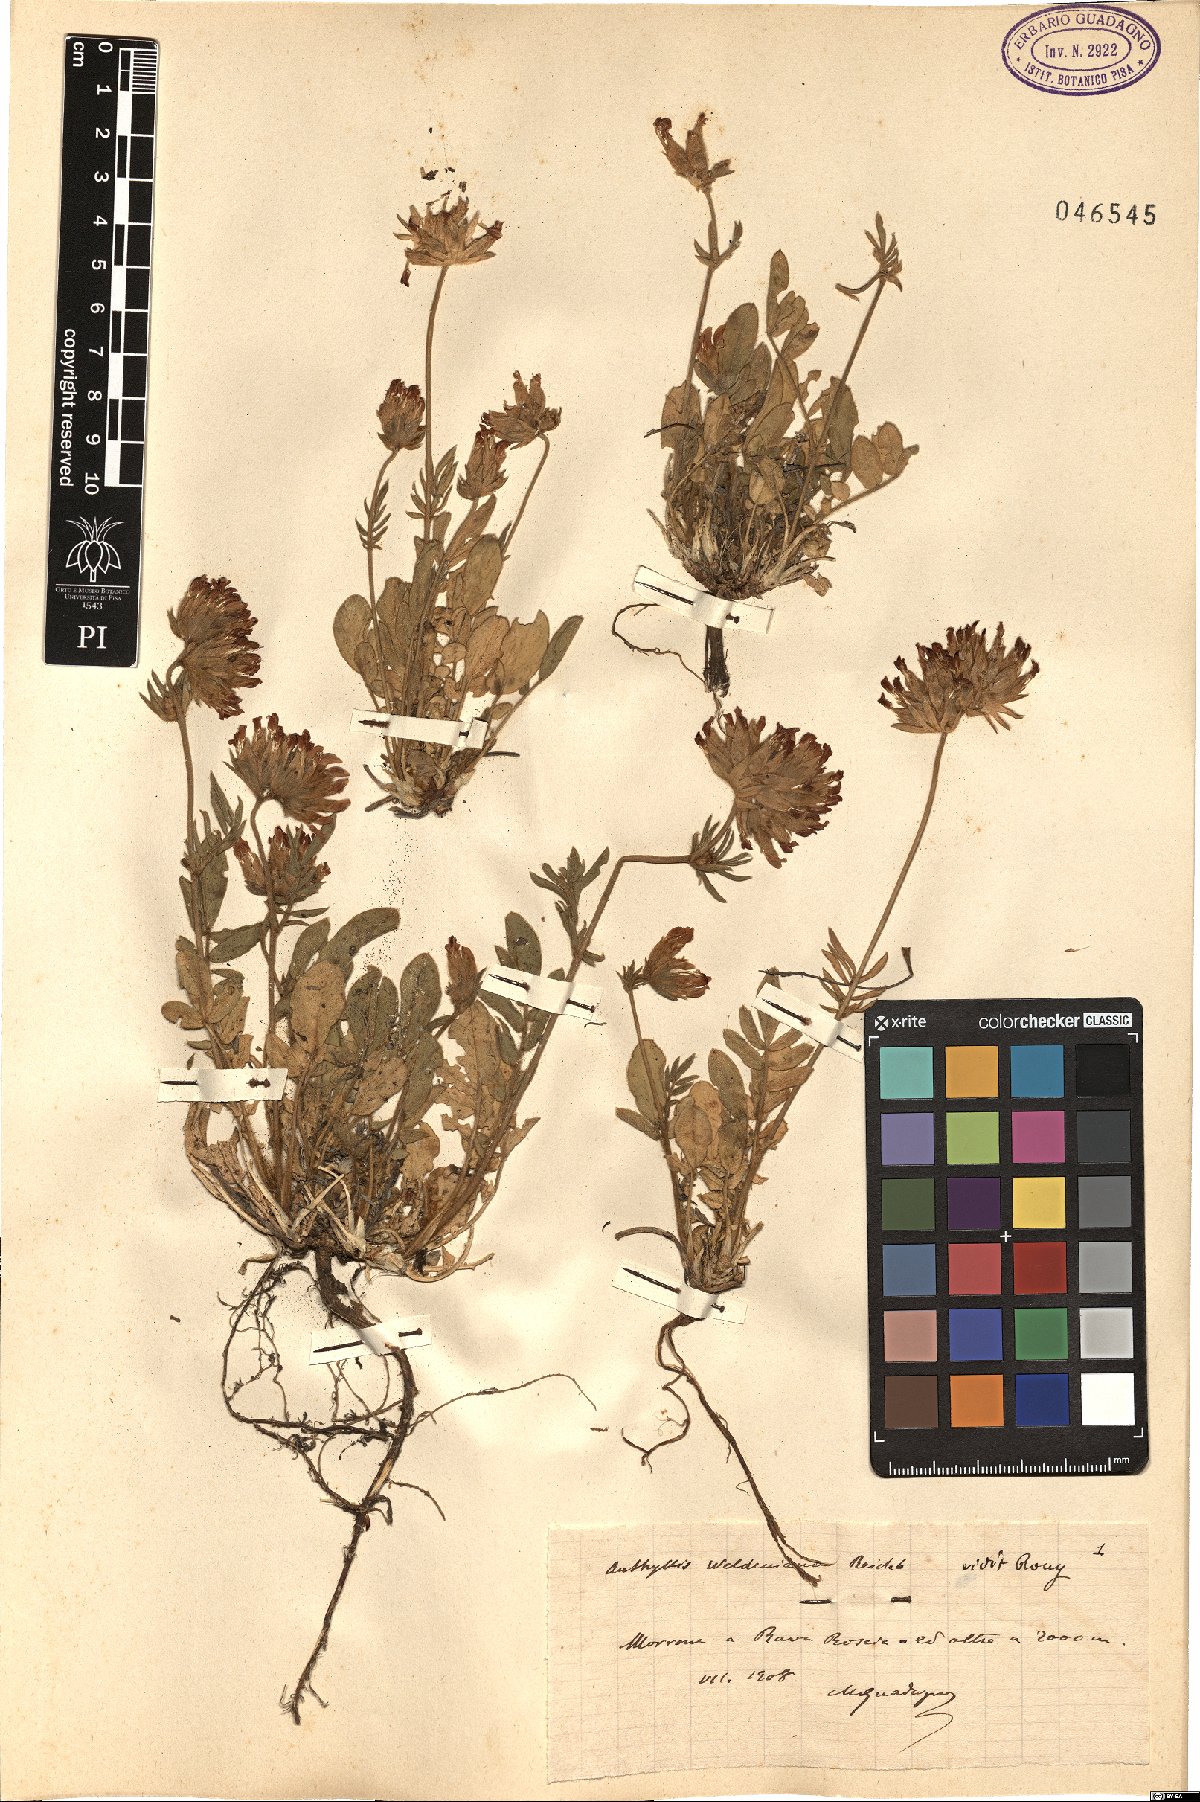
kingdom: Plantae
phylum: Tracheophyta
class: Magnoliopsida
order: Fabales
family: Fabaceae
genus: Anthyllis
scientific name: Anthyllis vulneraria
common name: Kidney vetch
